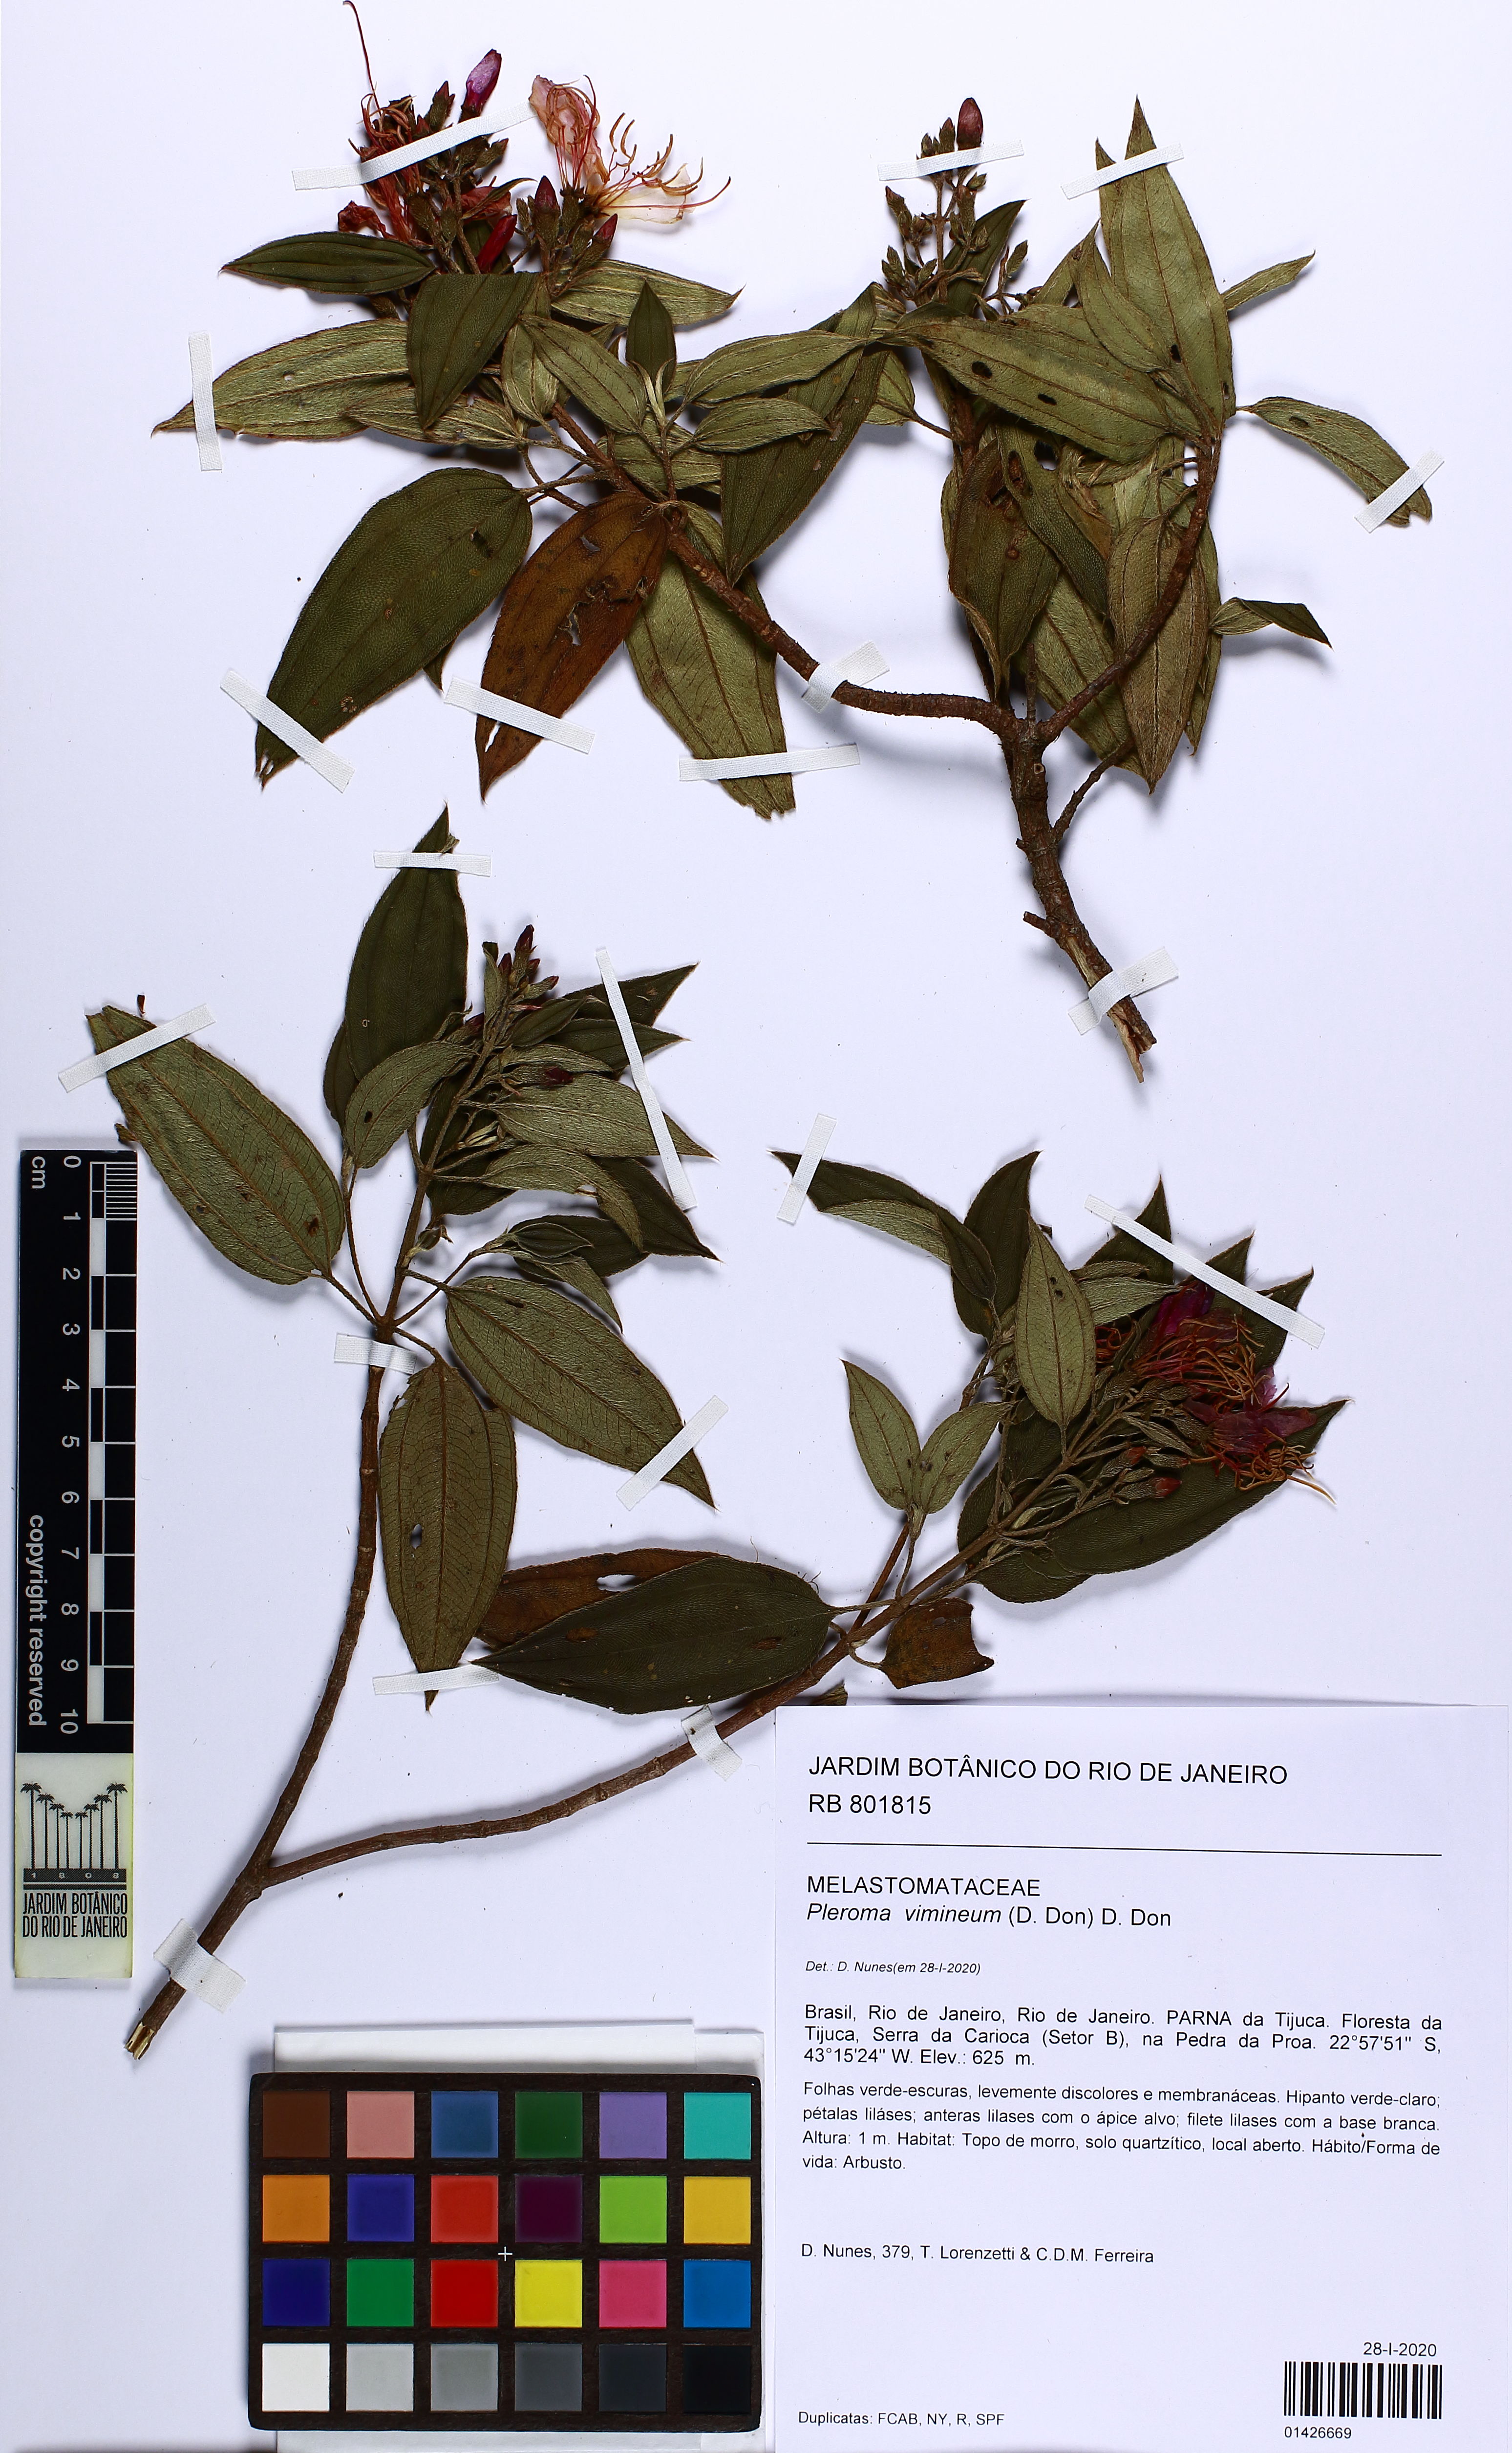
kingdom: Plantae
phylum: Tracheophyta
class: Magnoliopsida
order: Myrtales
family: Melastomataceae
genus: Pleroma
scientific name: Pleroma vimineum
